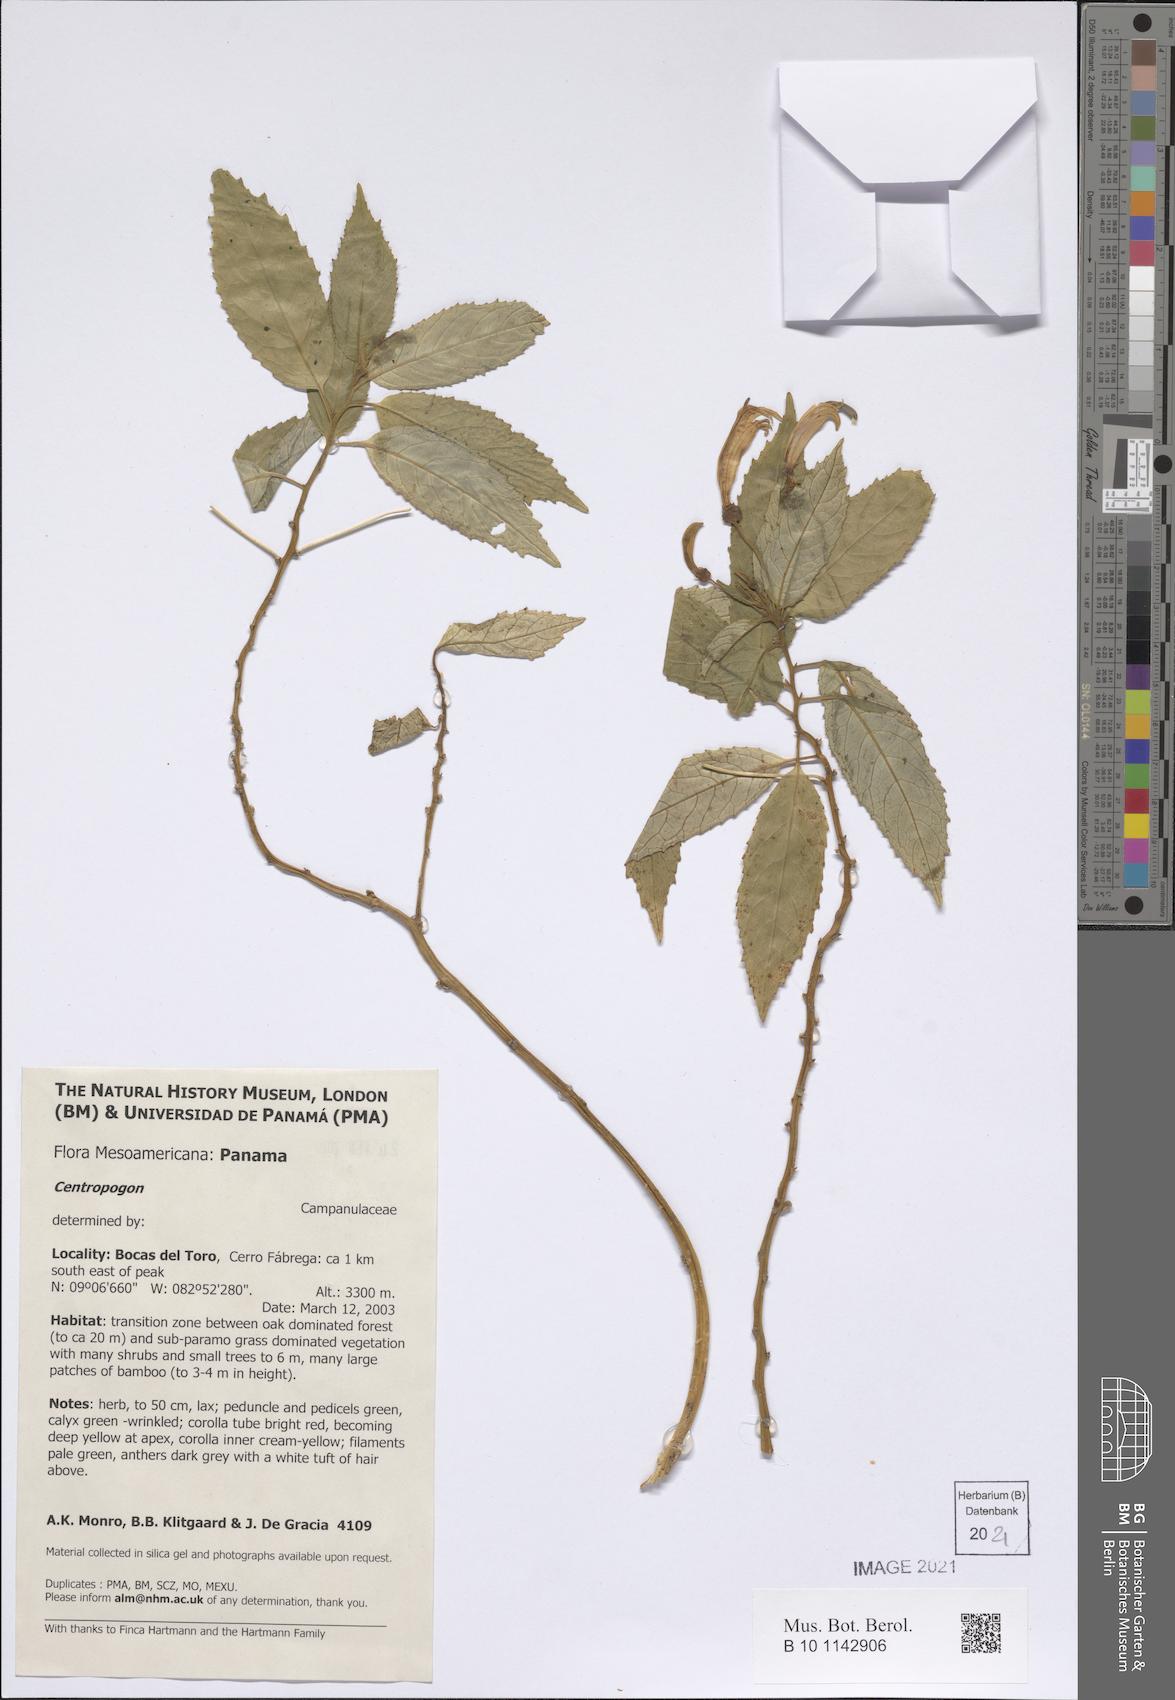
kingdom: Plantae
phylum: Tracheophyta
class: Magnoliopsida
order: Asterales
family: Campanulaceae
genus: Centropogon
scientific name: Centropogon
